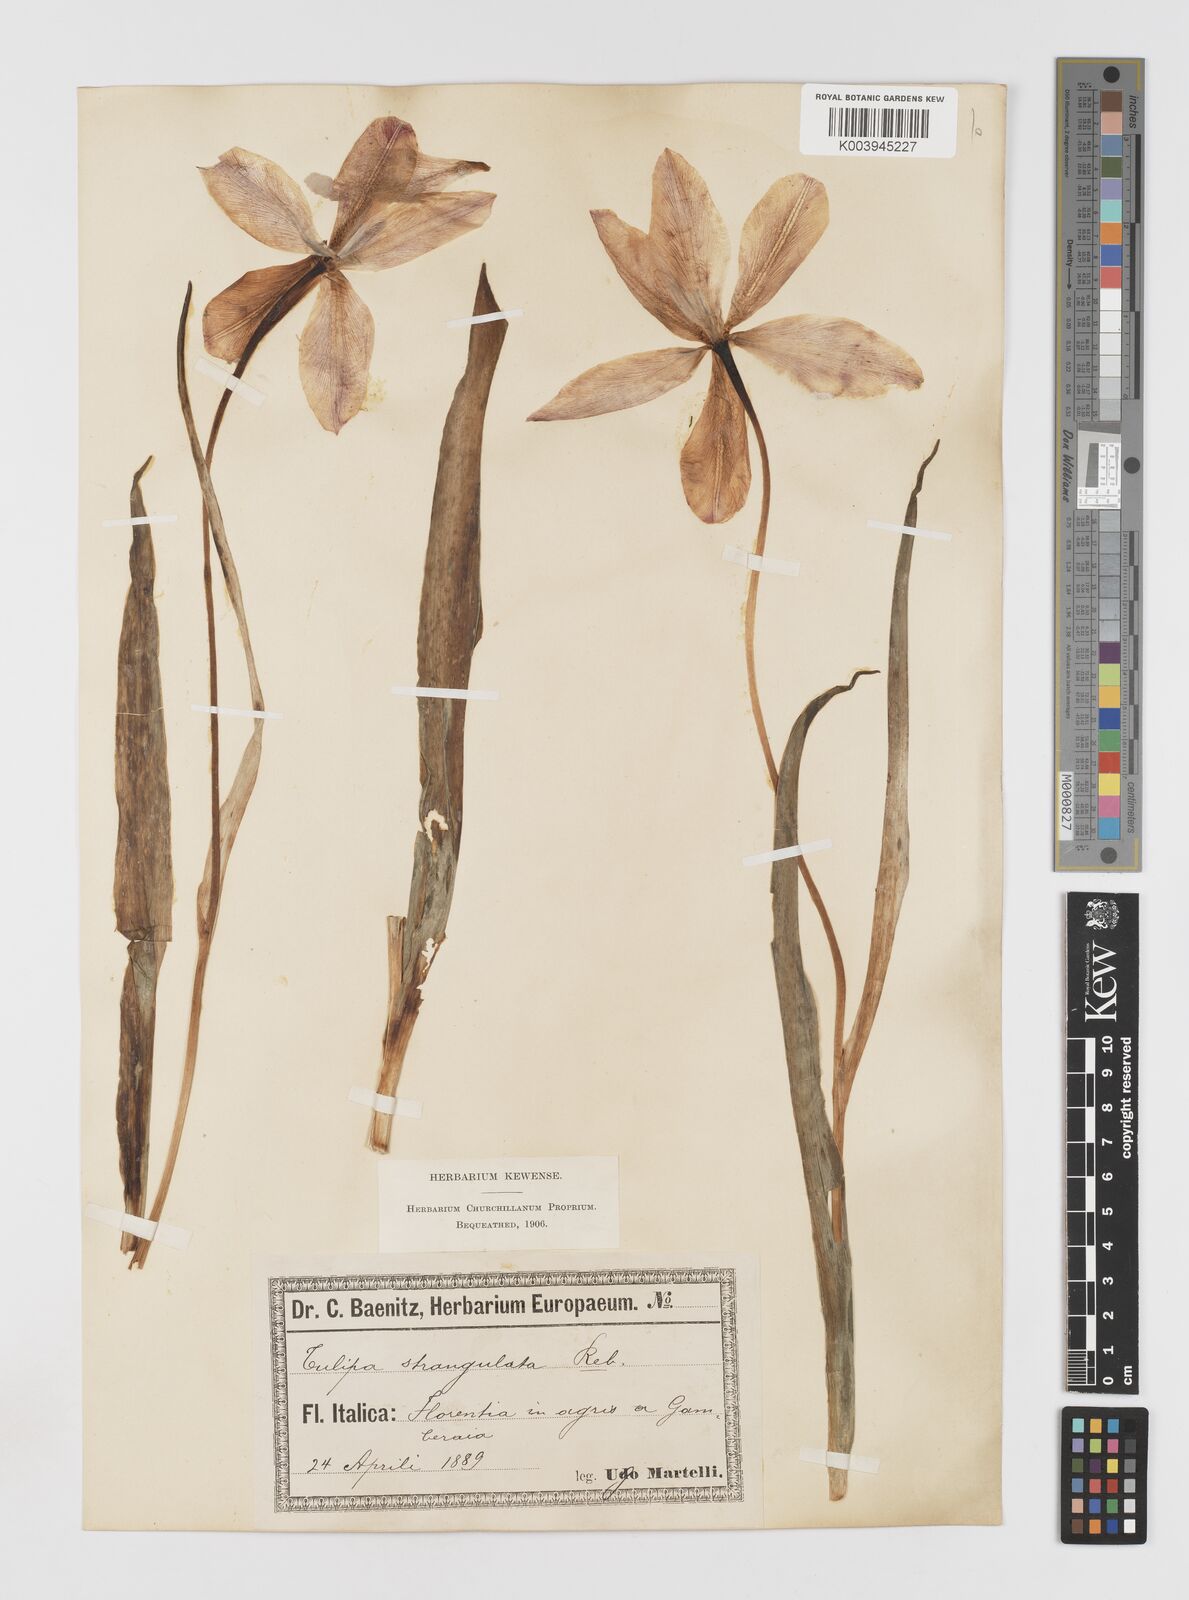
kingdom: Plantae
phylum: Tracheophyta
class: Liliopsida
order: Liliales
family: Liliaceae
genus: Tulipa
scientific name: Tulipa
